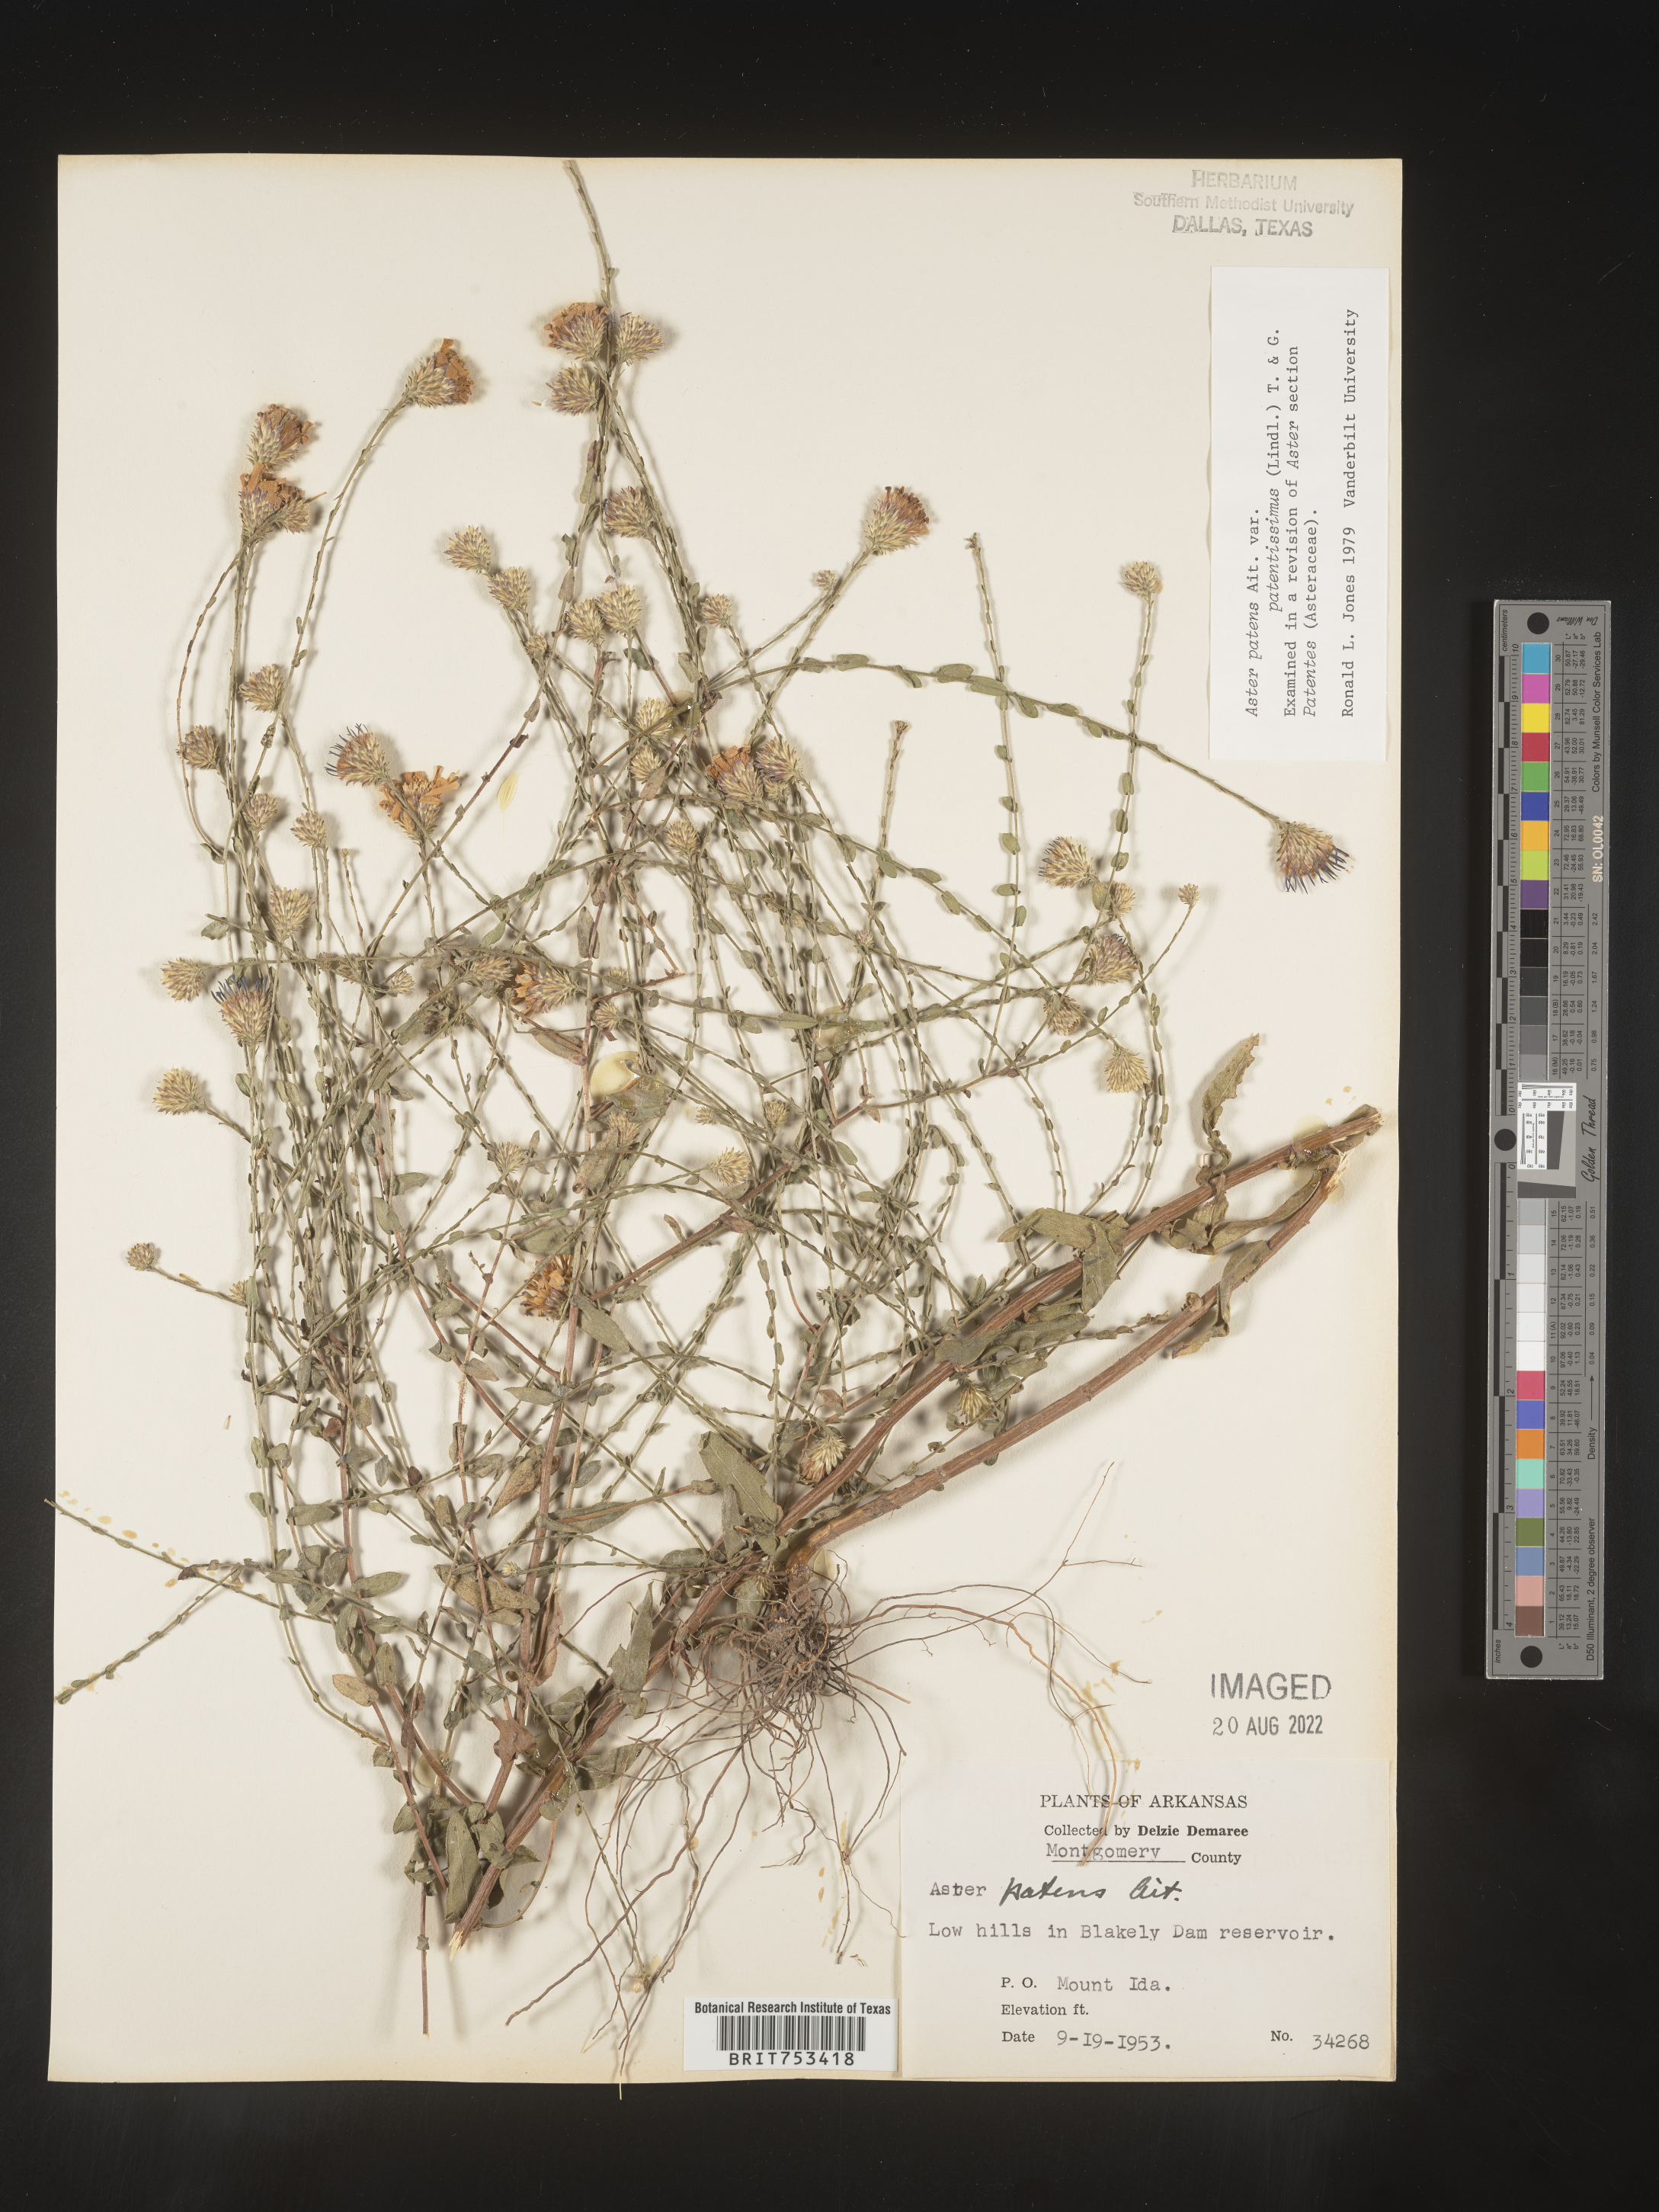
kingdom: Plantae
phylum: Tracheophyta
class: Magnoliopsida
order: Asterales
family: Asteraceae
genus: Symphyotrichum
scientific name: Symphyotrichum patens
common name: Late purple aster
